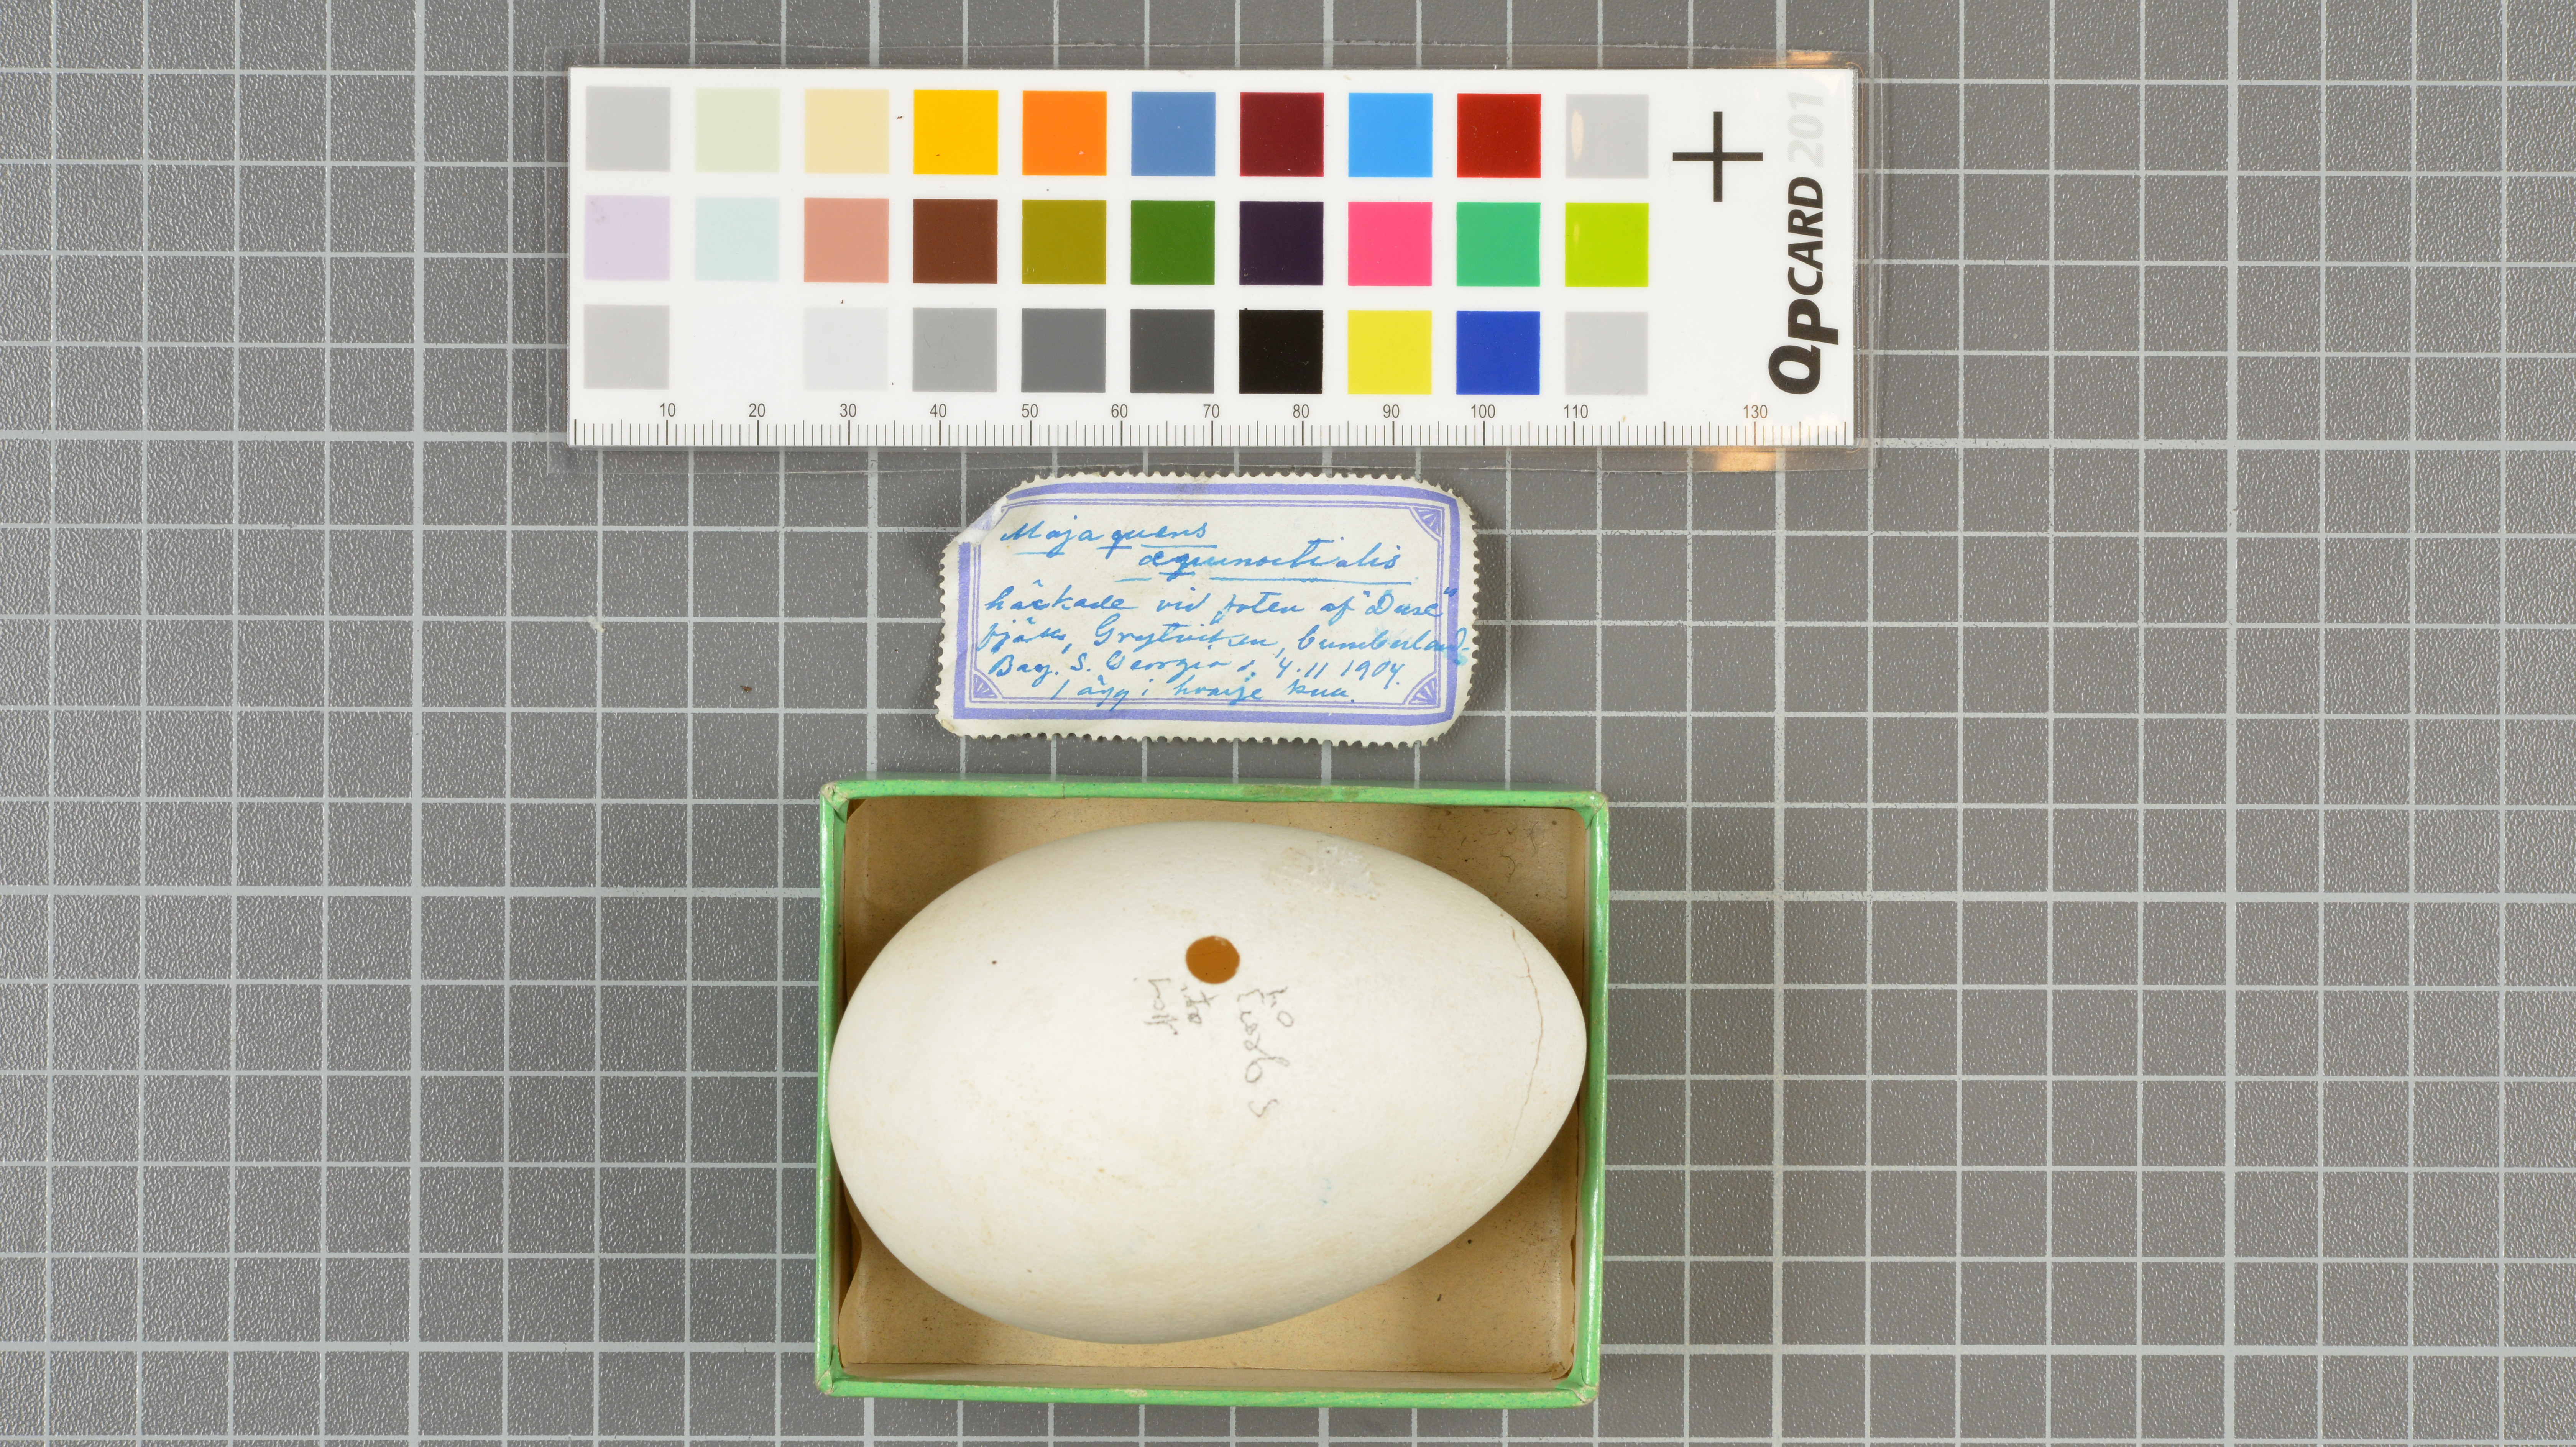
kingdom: Animalia
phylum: Chordata
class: Aves
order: Procellariiformes
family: Procellariidae
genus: Procellaria
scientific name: Procellaria aequinoctialis
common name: White-chinned petrel
